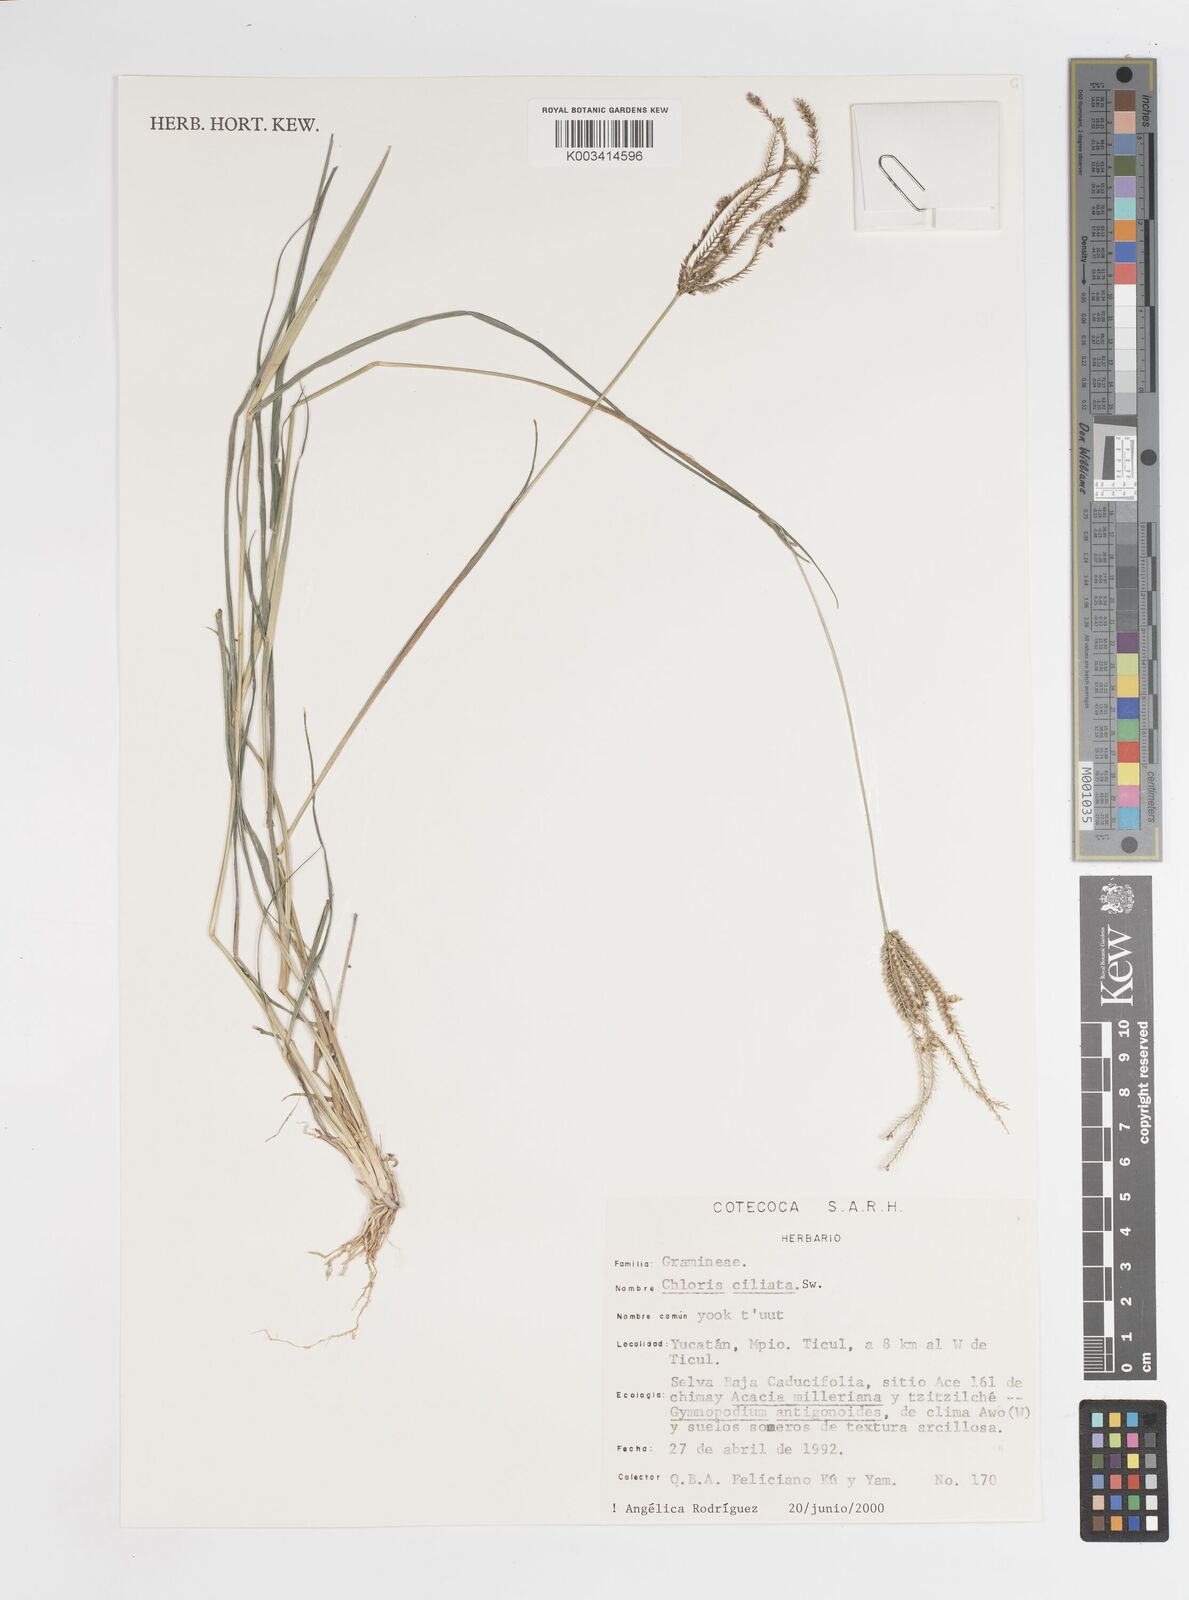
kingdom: Plantae
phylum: Tracheophyta
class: Liliopsida
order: Poales
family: Poaceae
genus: Stapfochloa
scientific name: Stapfochloa ciliata
